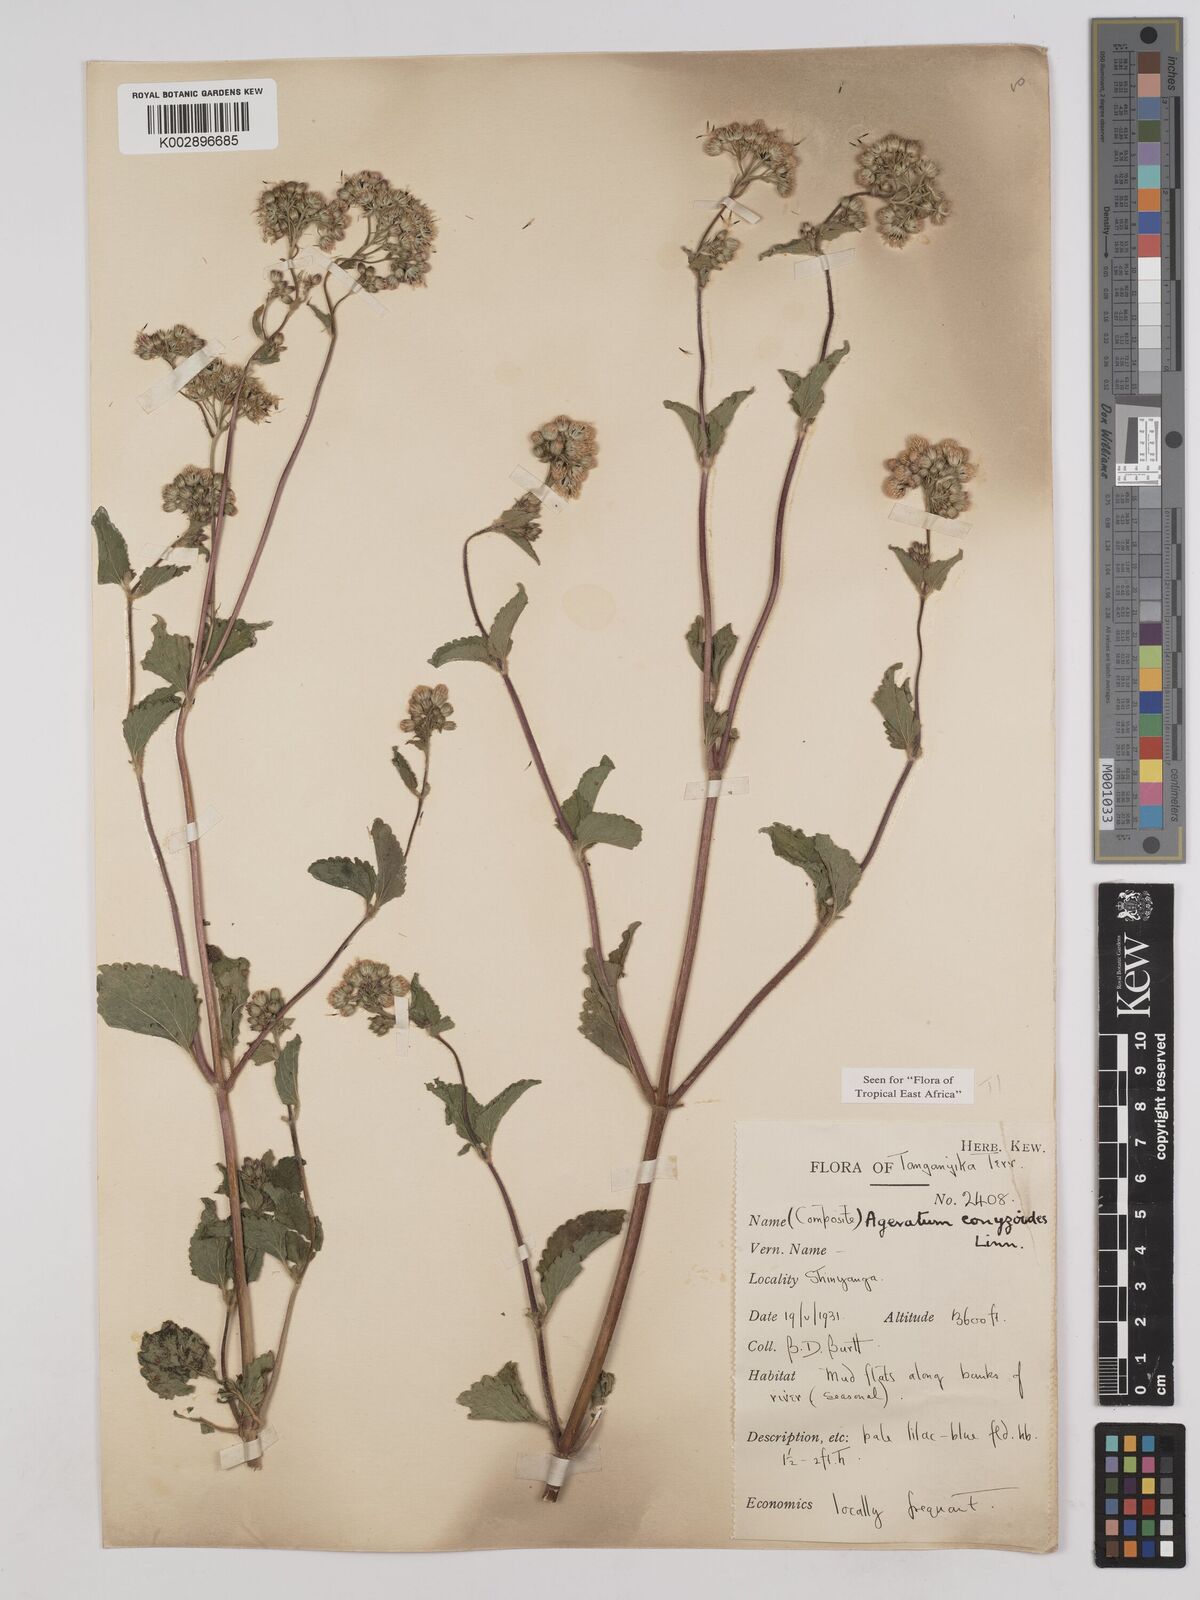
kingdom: Plantae
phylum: Tracheophyta
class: Magnoliopsida
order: Asterales
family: Asteraceae
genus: Ageratum
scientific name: Ageratum conyzoides
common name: Tropical whiteweed
